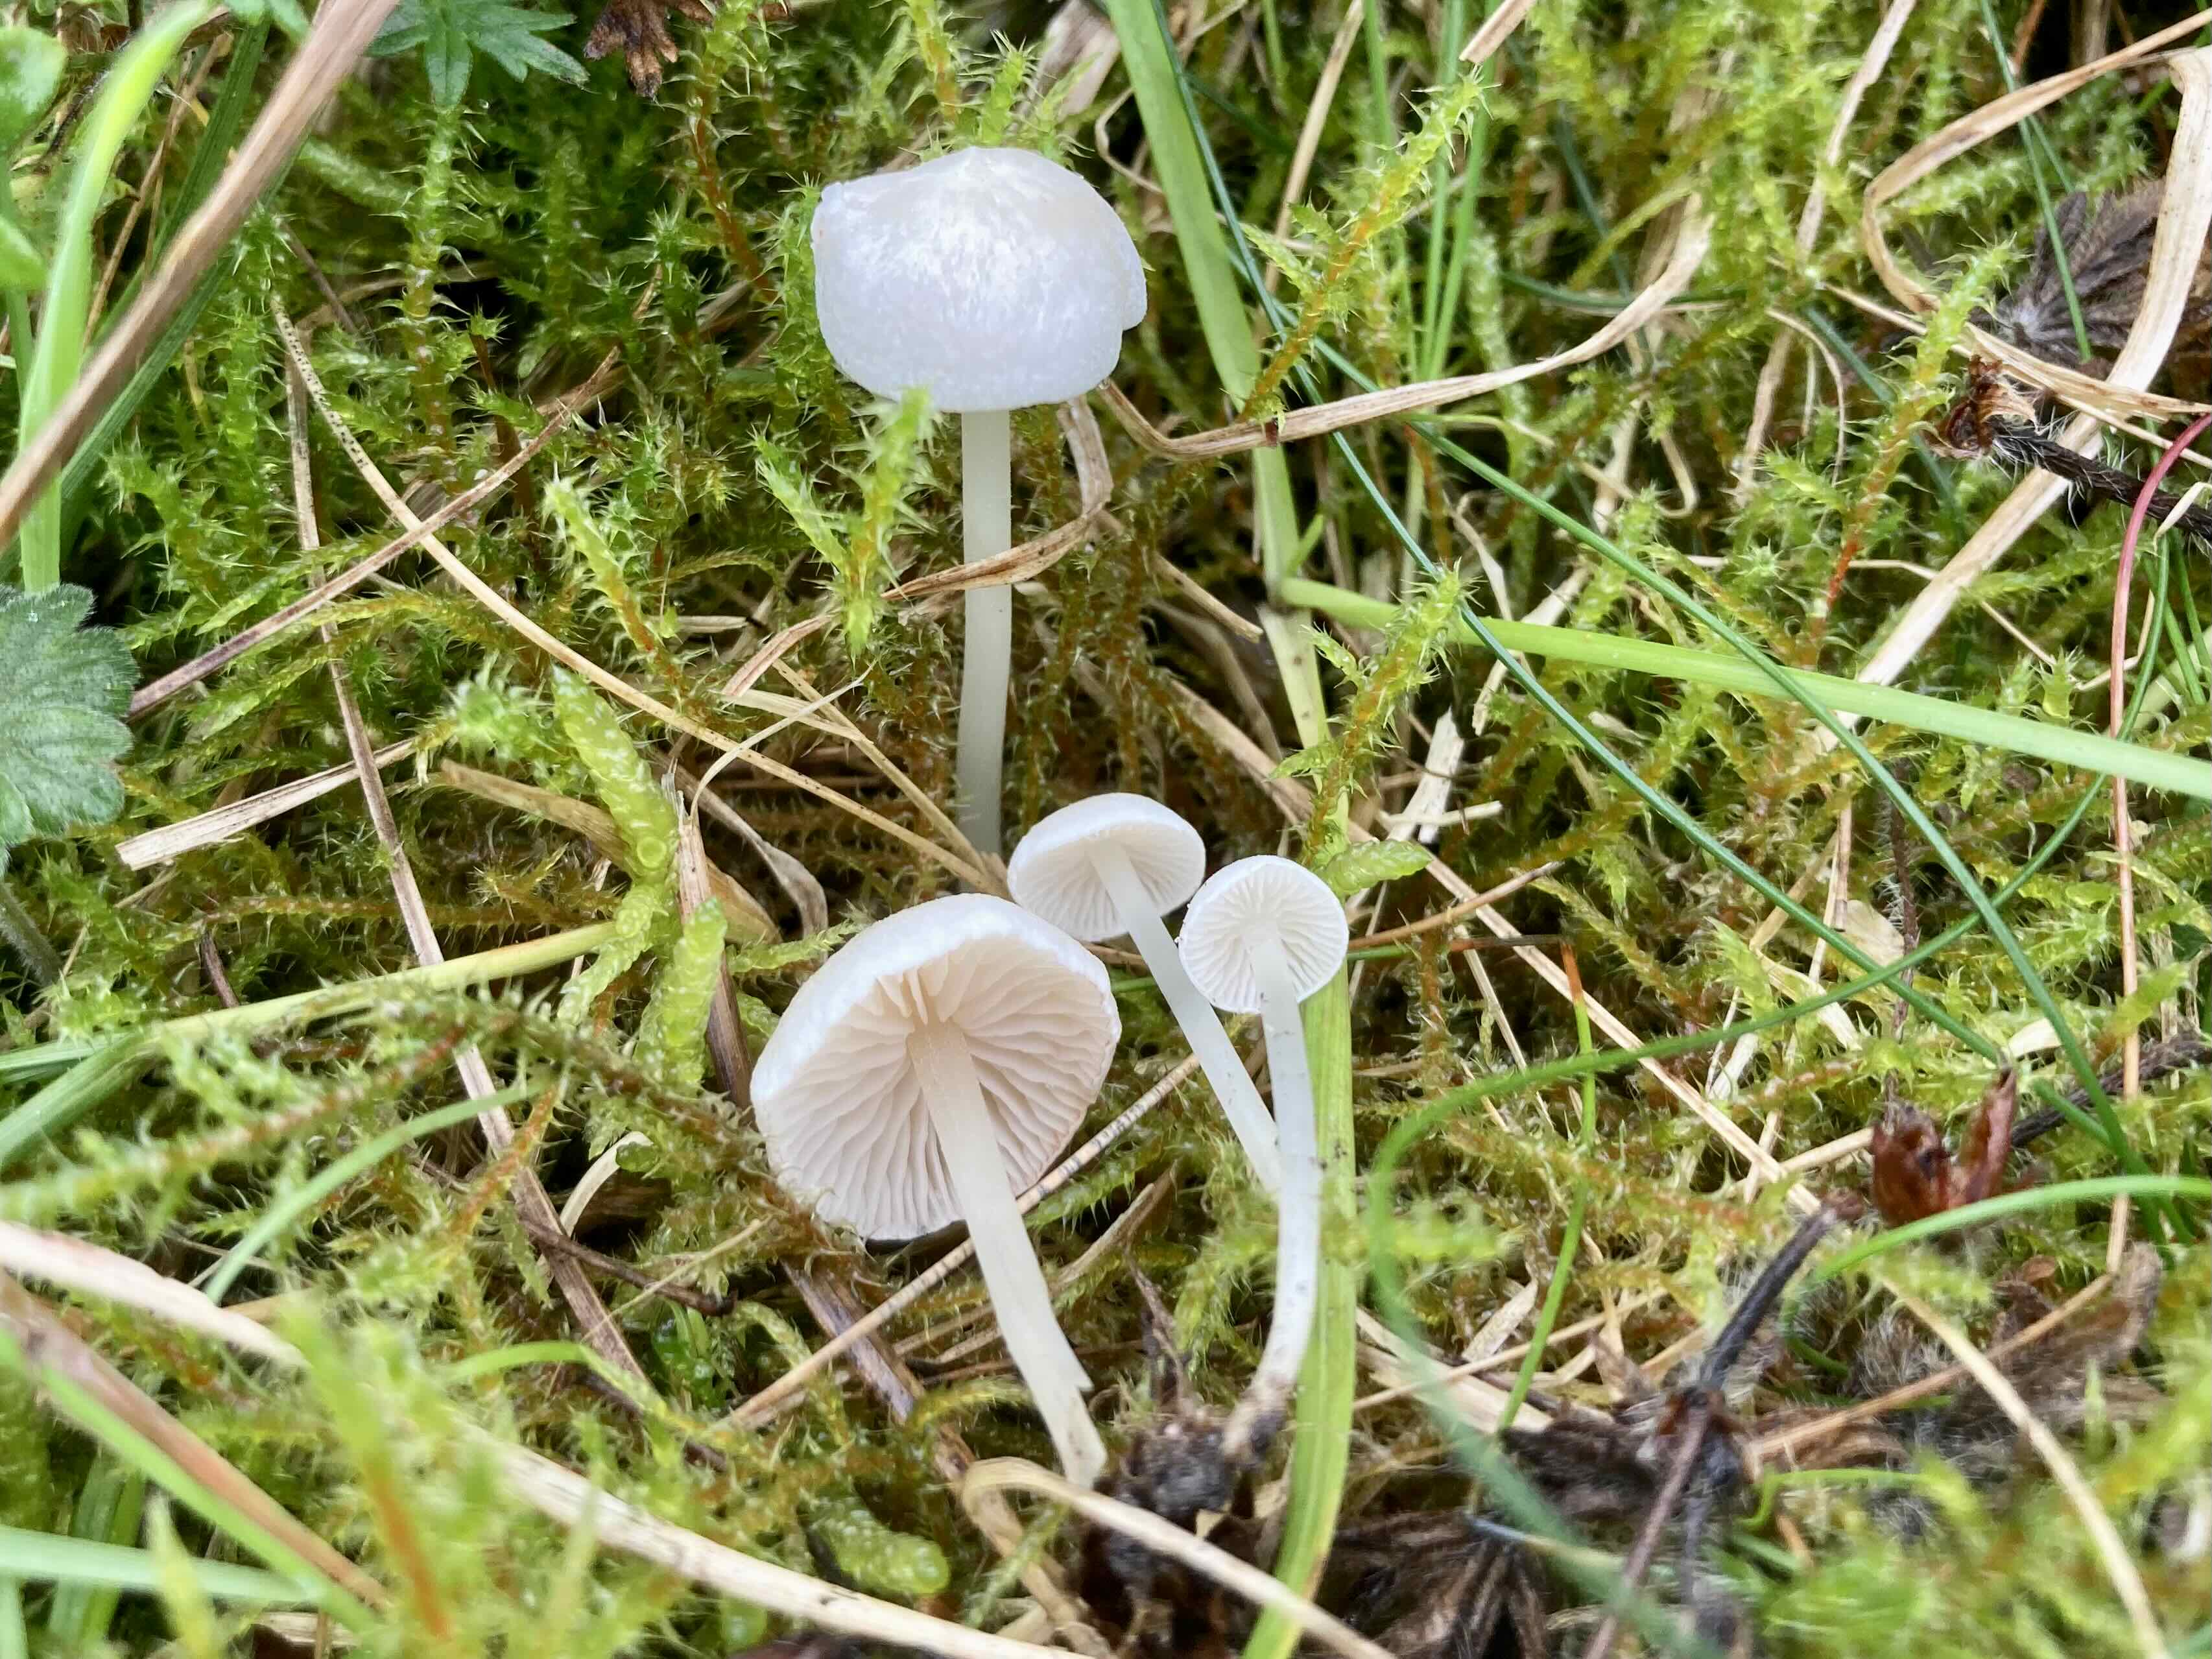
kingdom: Fungi
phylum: Basidiomycota
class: Agaricomycetes
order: Agaricales
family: Entolomataceae
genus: Entoloma
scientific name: Entoloma sericellum
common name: silkehvid rødblad
